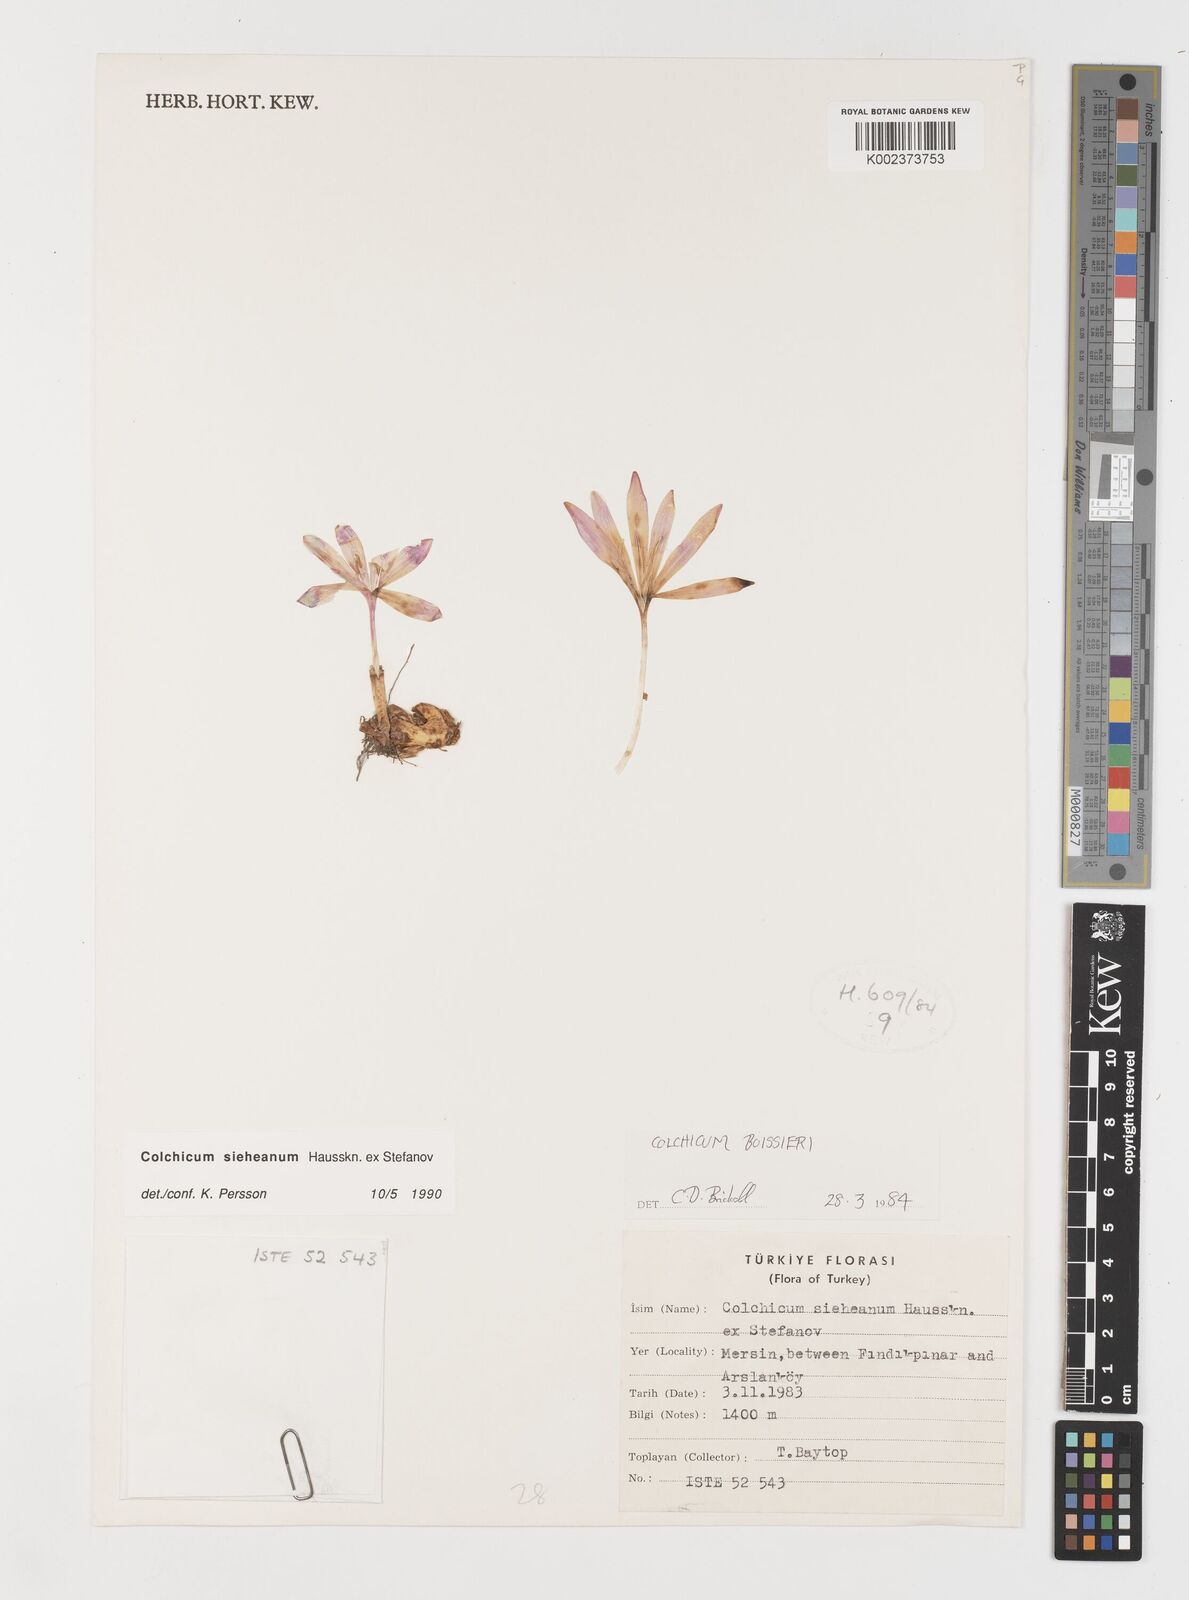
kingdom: Plantae
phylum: Tracheophyta
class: Liliopsida
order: Liliales
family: Colchicaceae
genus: Colchicum
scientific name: Colchicum sieheanum
